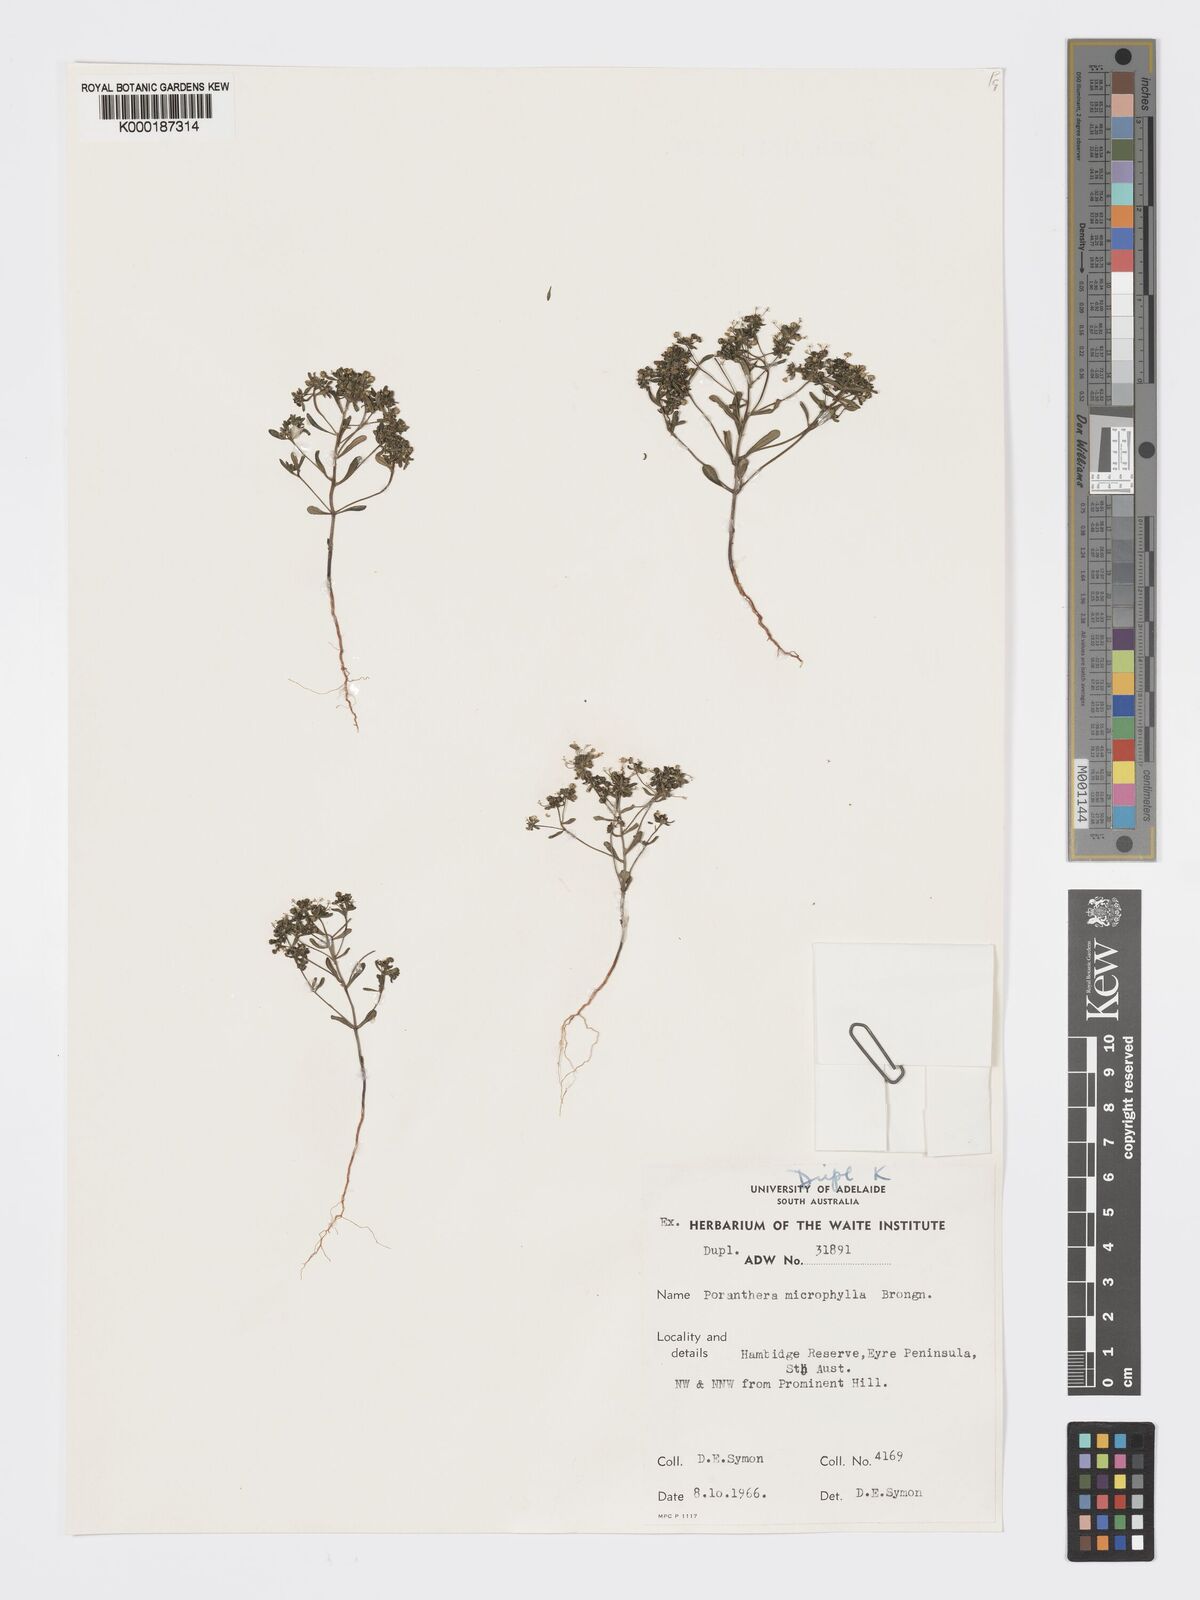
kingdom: Plantae
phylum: Tracheophyta
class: Magnoliopsida
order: Malpighiales
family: Phyllanthaceae
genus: Poranthera
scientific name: Poranthera microphylla
